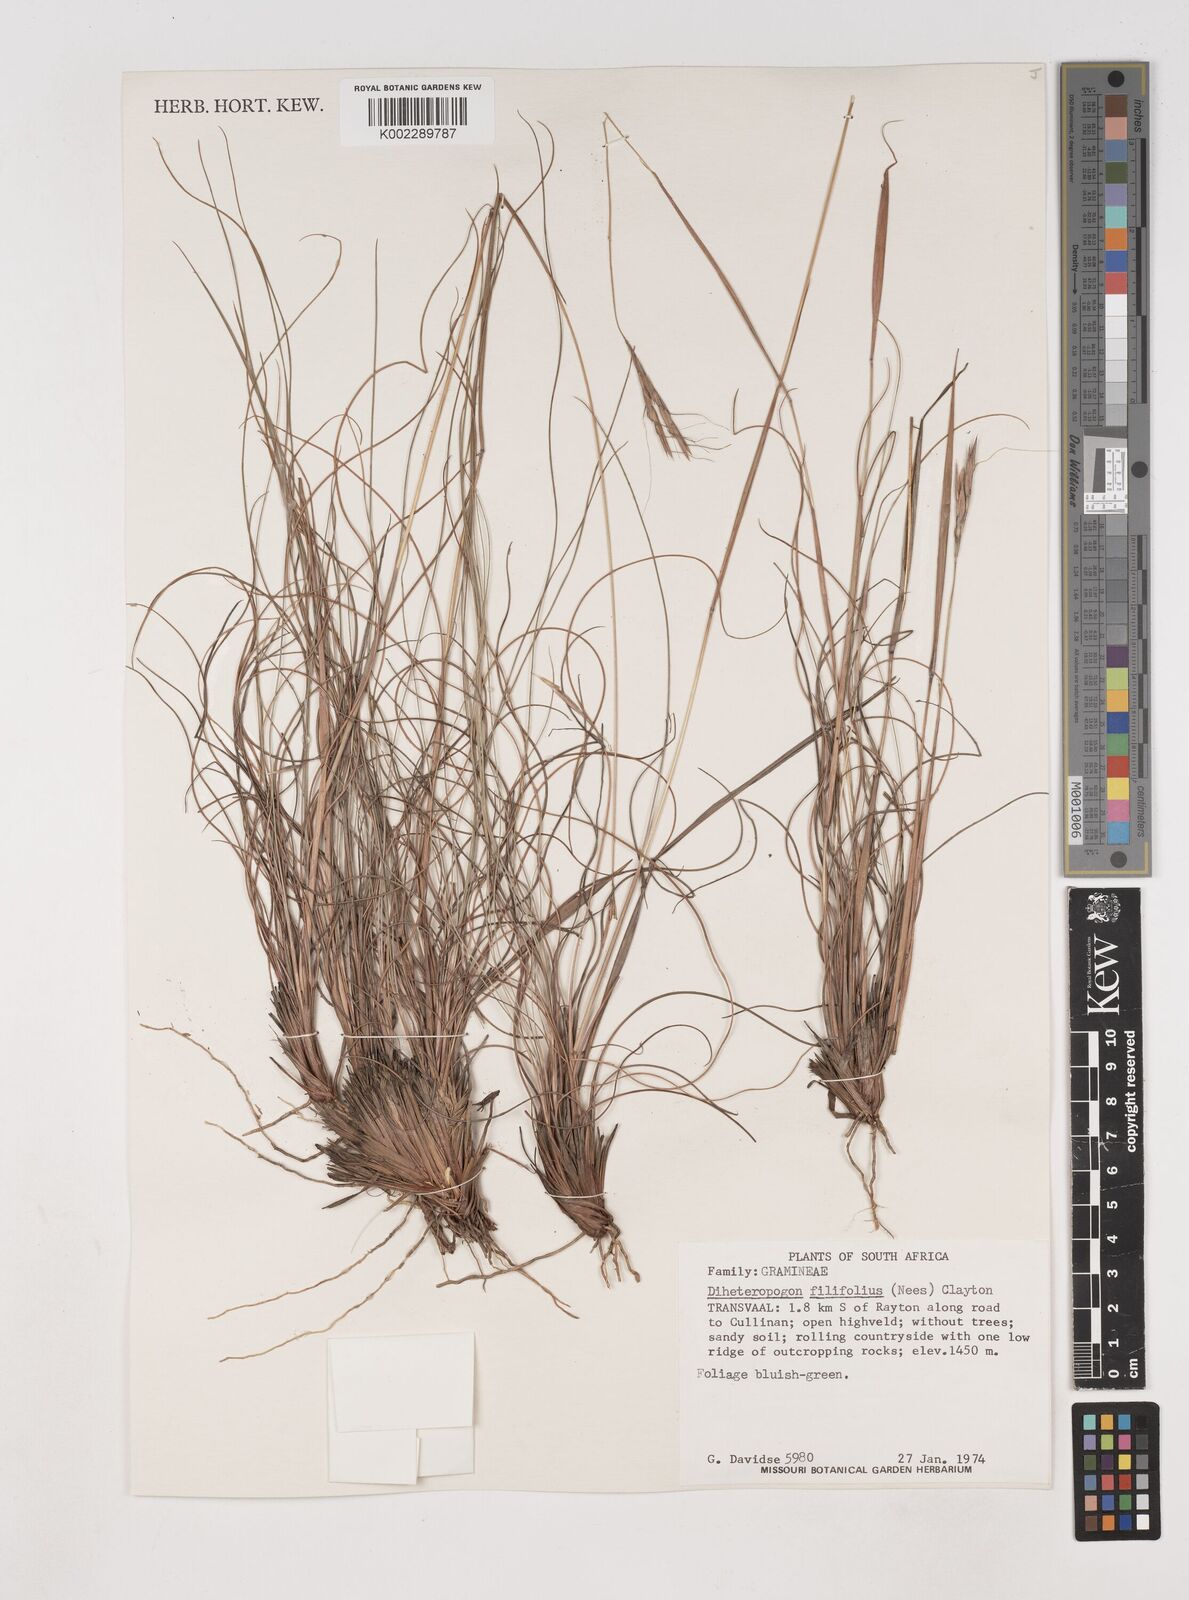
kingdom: Plantae
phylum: Tracheophyta
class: Liliopsida
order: Poales
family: Poaceae
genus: Diheteropogon
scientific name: Diheteropogon filifolius
